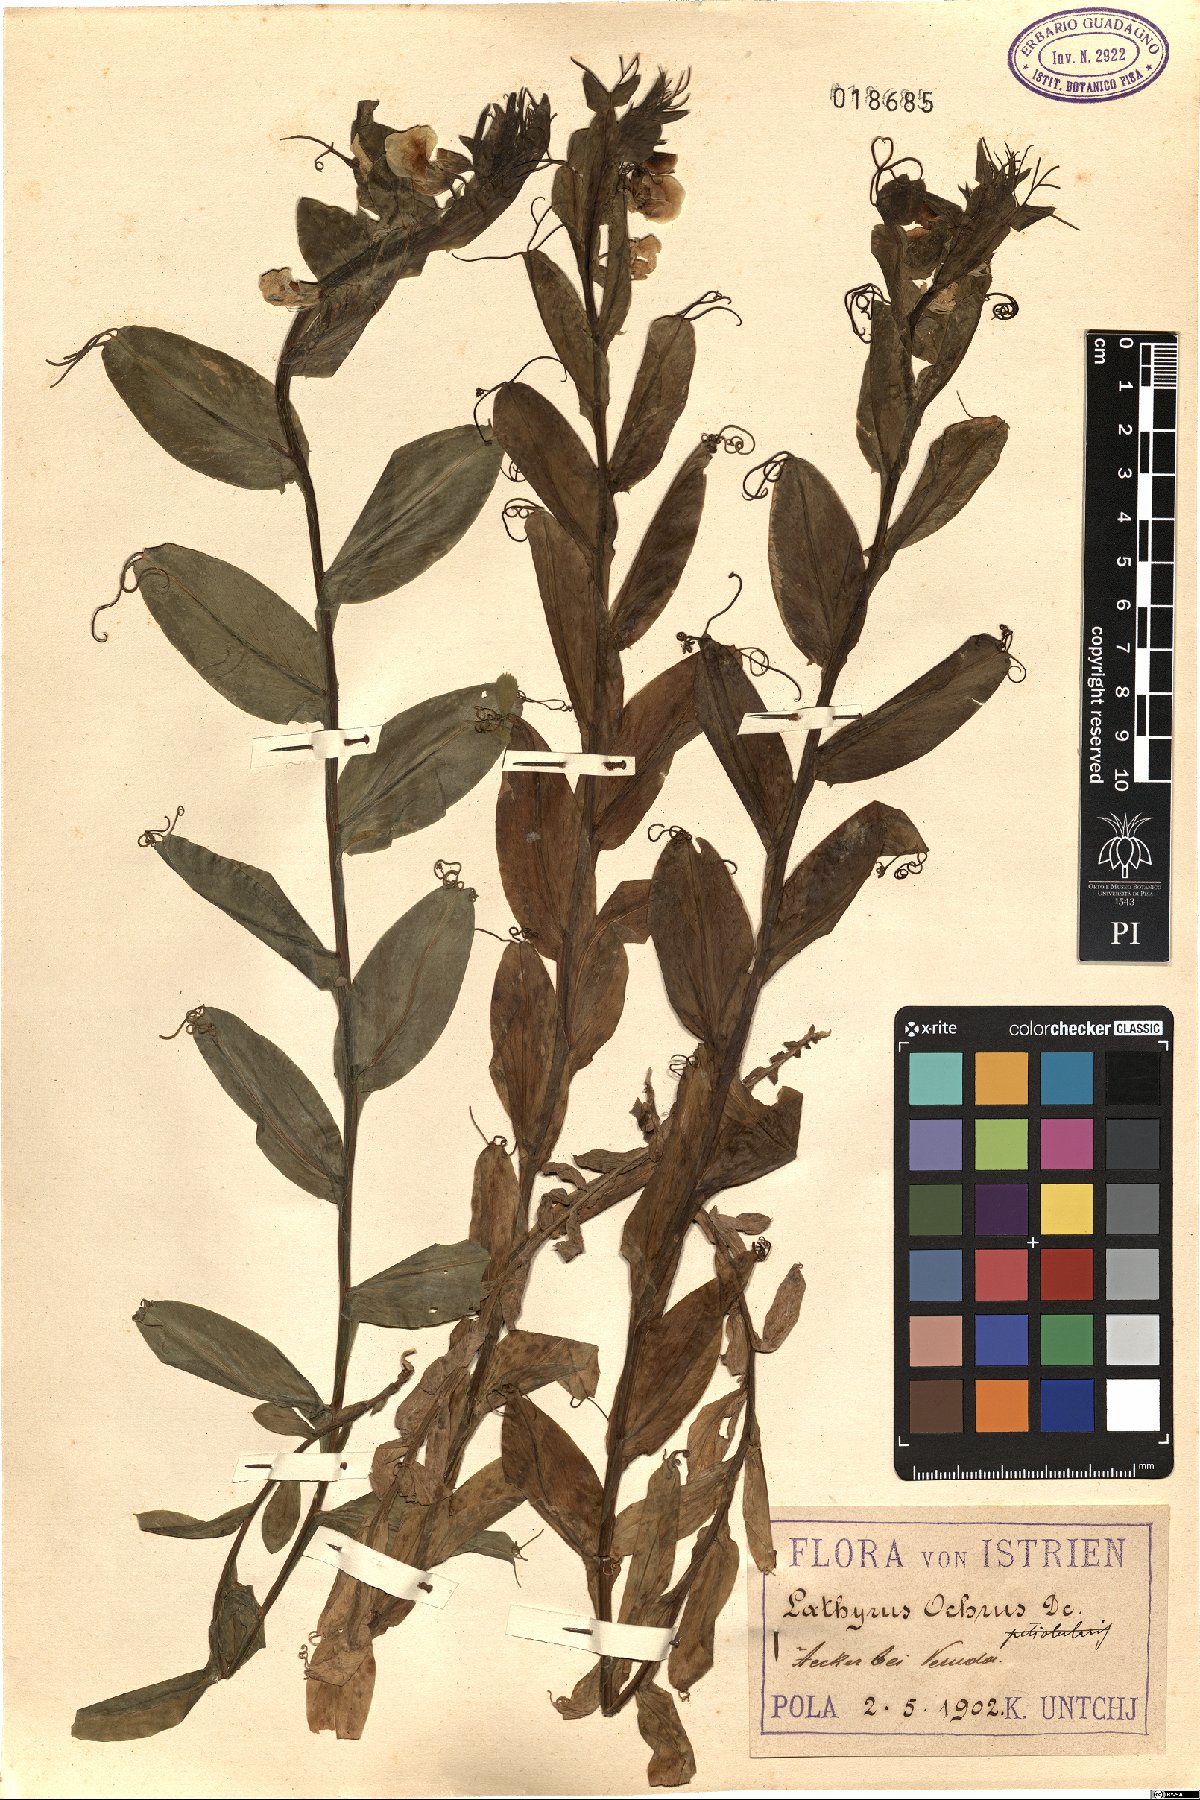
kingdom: Plantae
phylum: Tracheophyta
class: Magnoliopsida
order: Fabales
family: Fabaceae
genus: Lathyrus
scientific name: Lathyrus ochrus
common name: Winged vetchling
